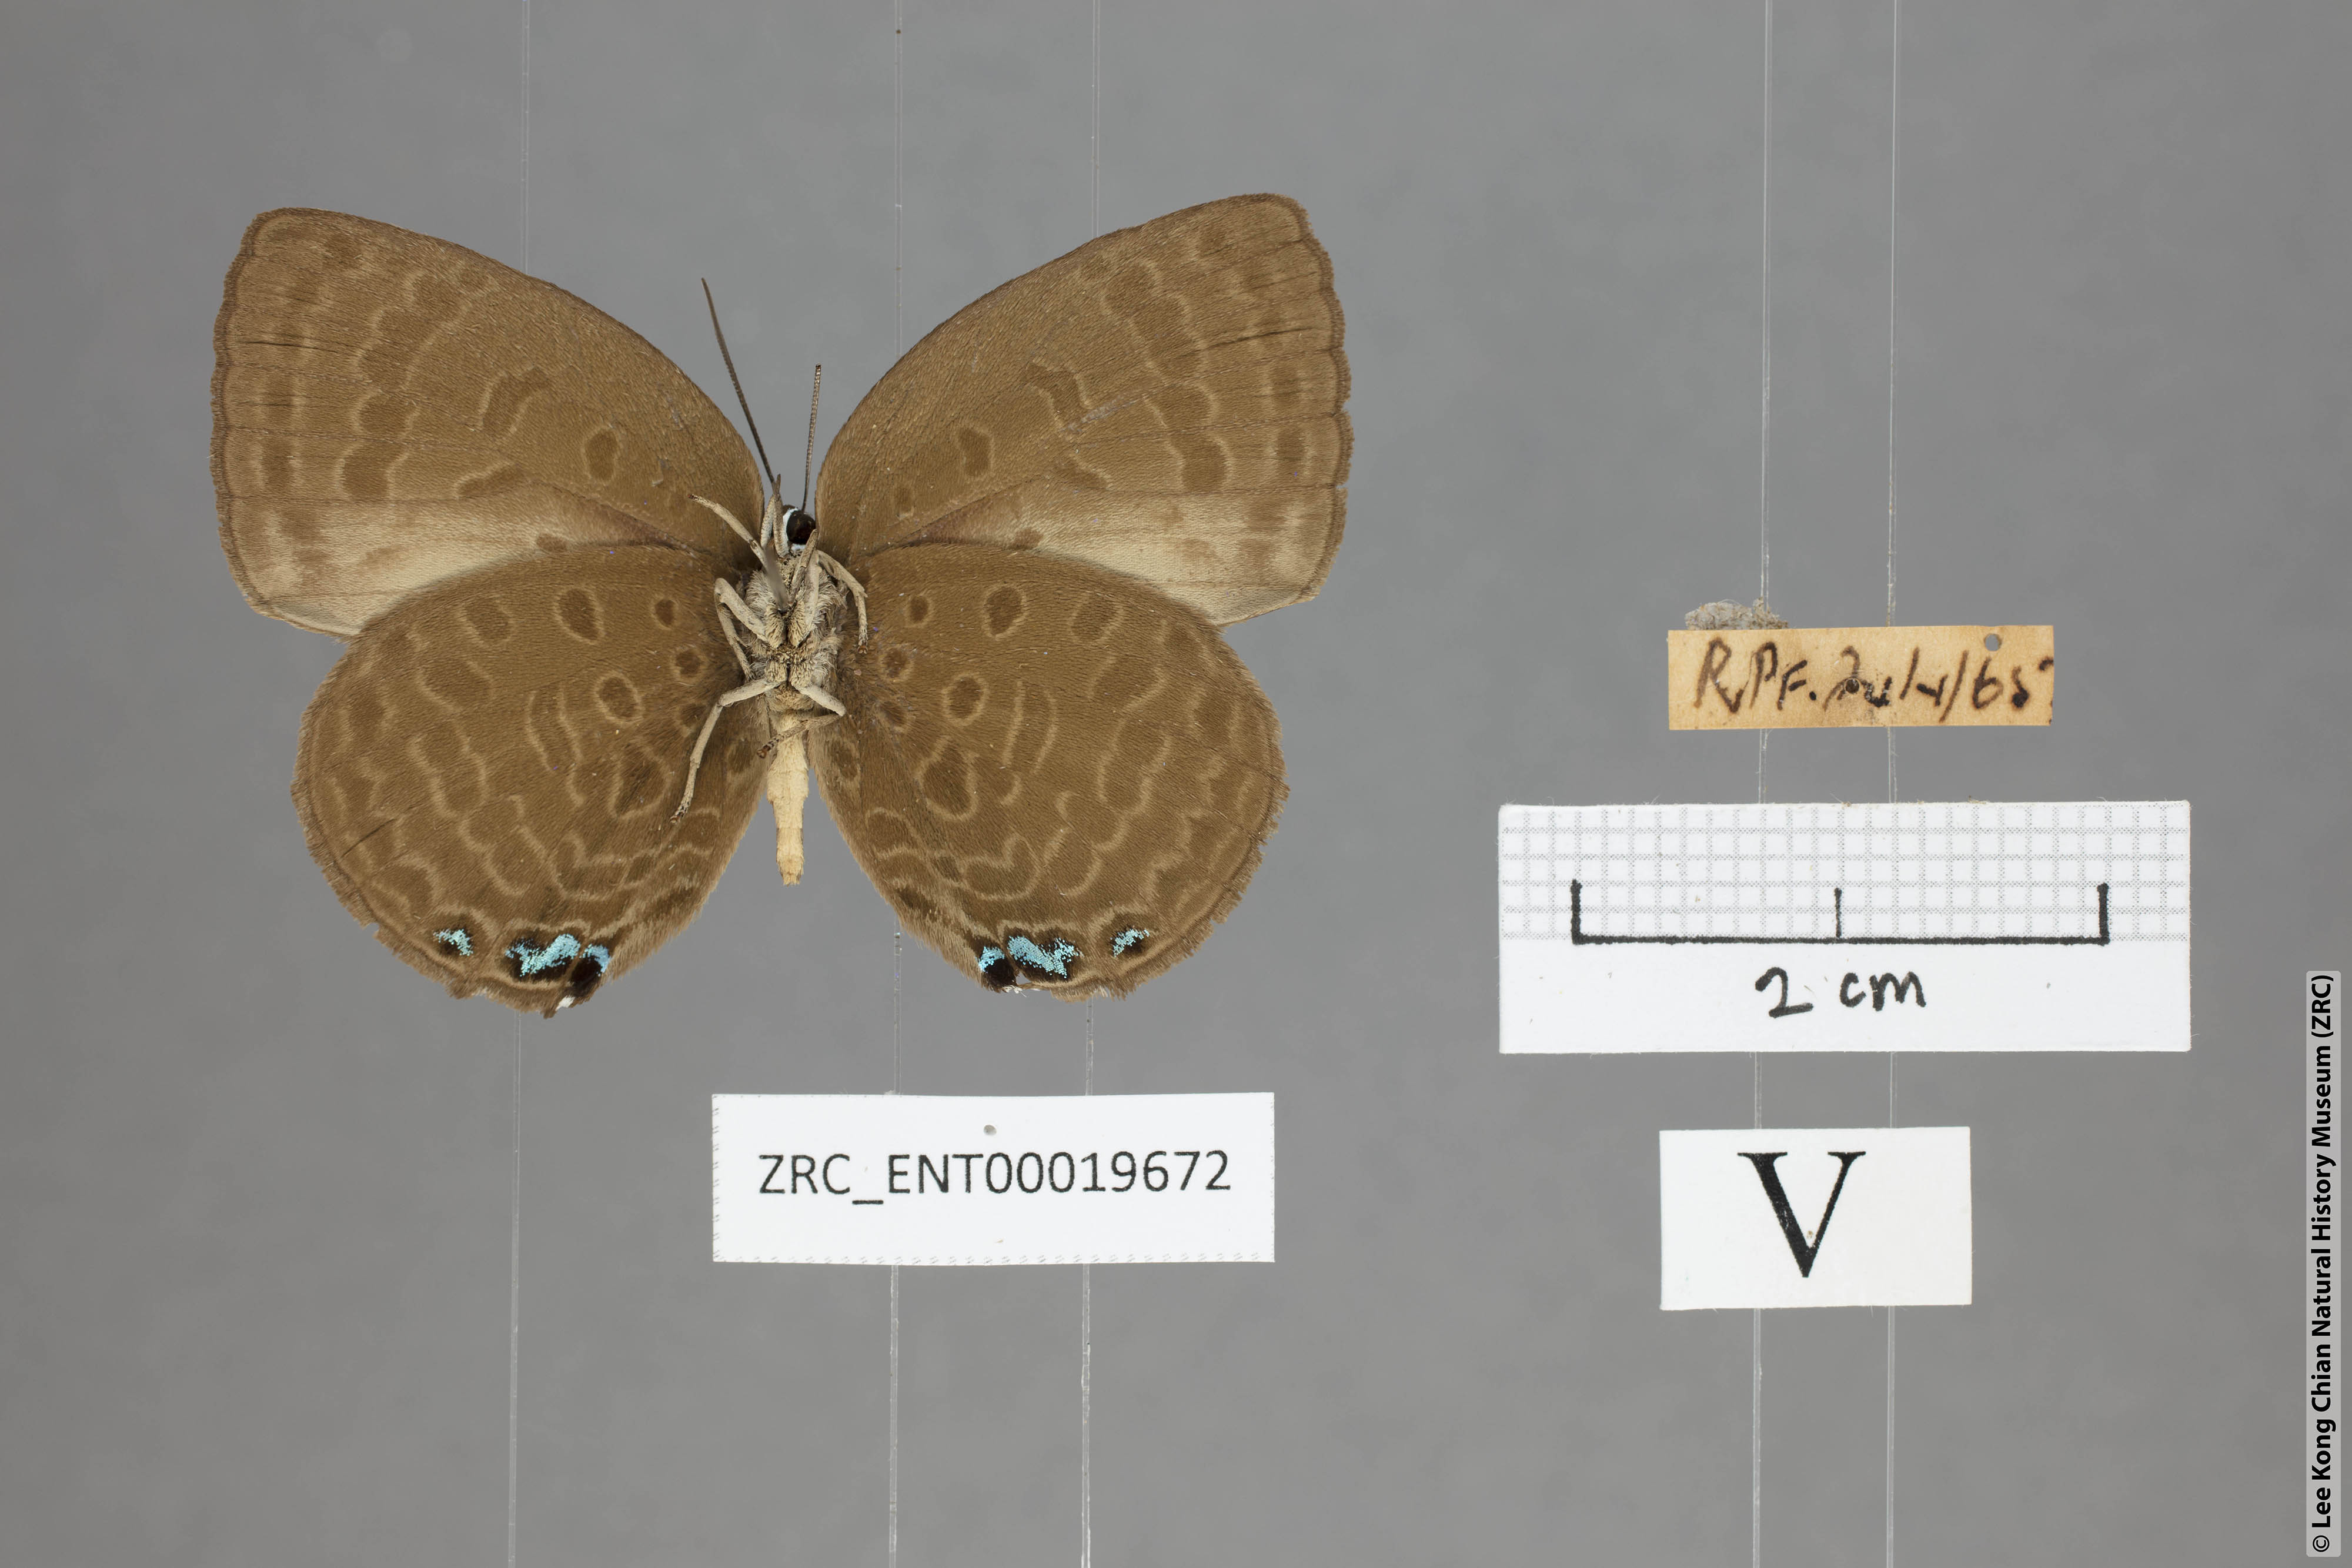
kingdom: Animalia
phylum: Arthropoda
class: Insecta
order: Lepidoptera
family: Lycaenidae
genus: Arhopala
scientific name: Arhopala moolaina
